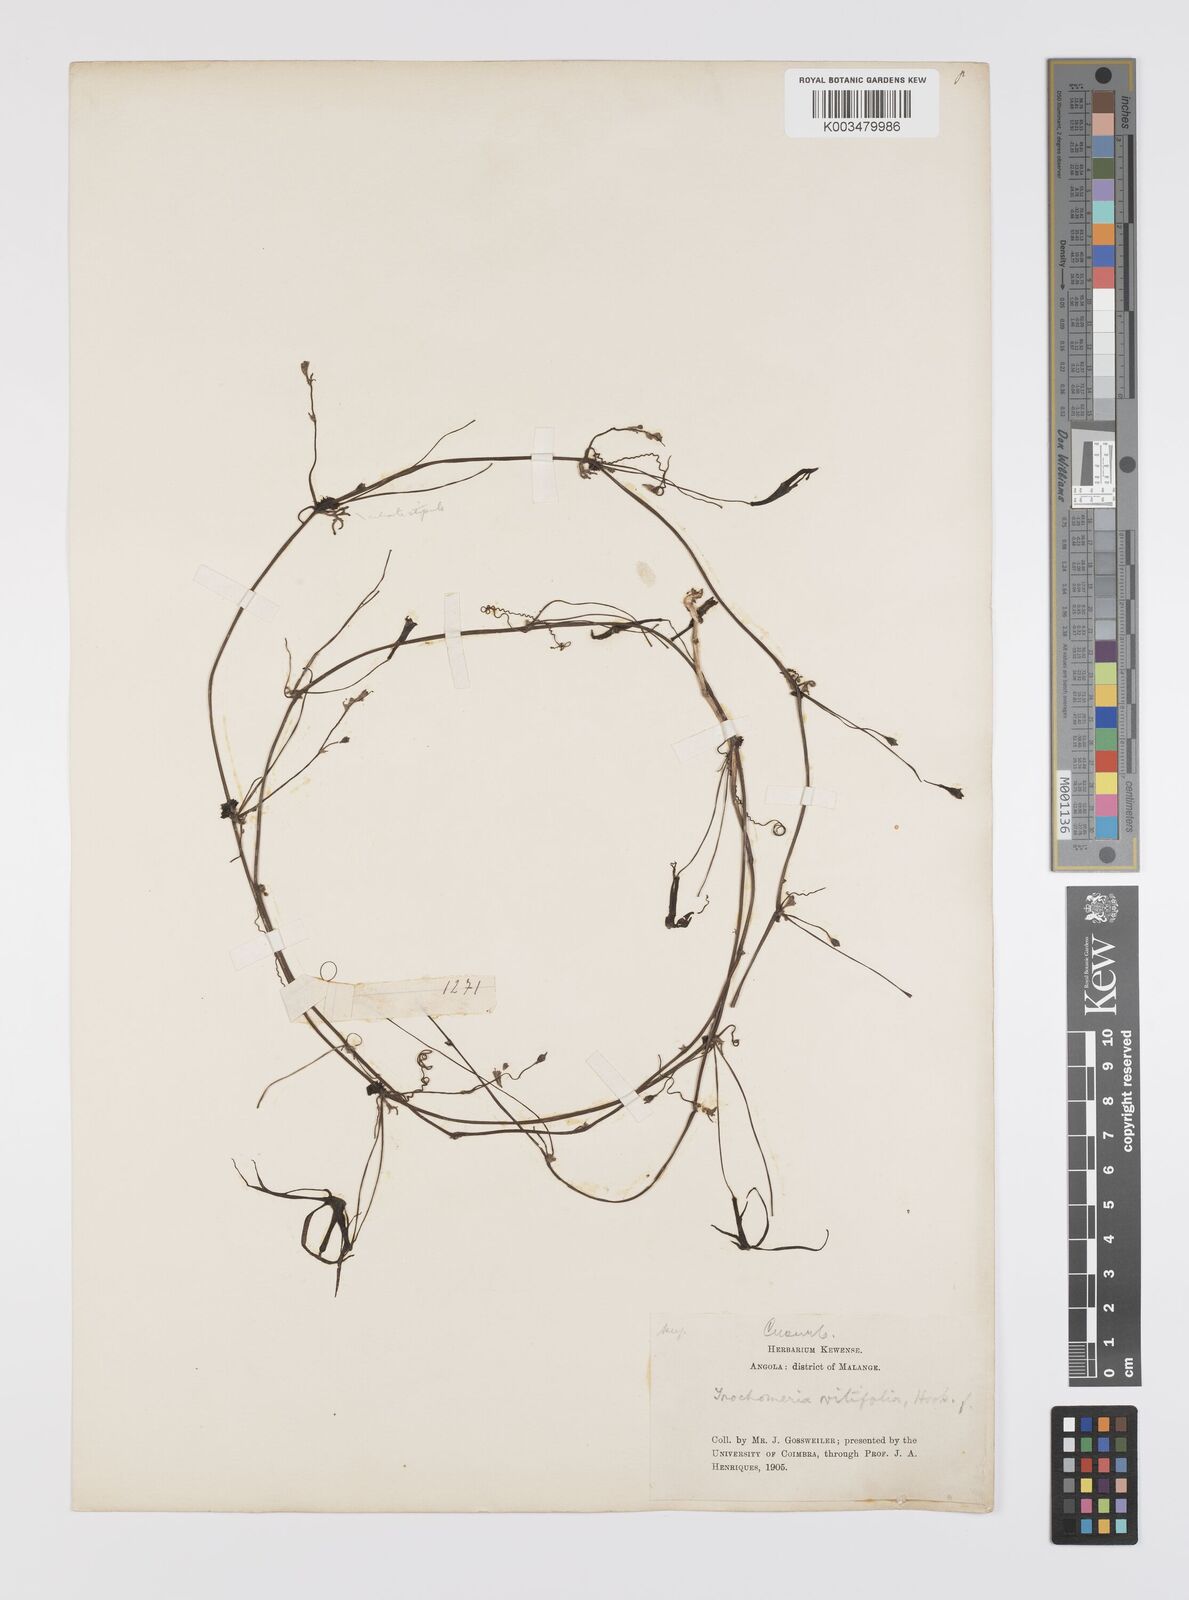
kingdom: Plantae
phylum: Tracheophyta
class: Magnoliopsida
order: Cucurbitales
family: Cucurbitaceae
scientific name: Cucurbitaceae
